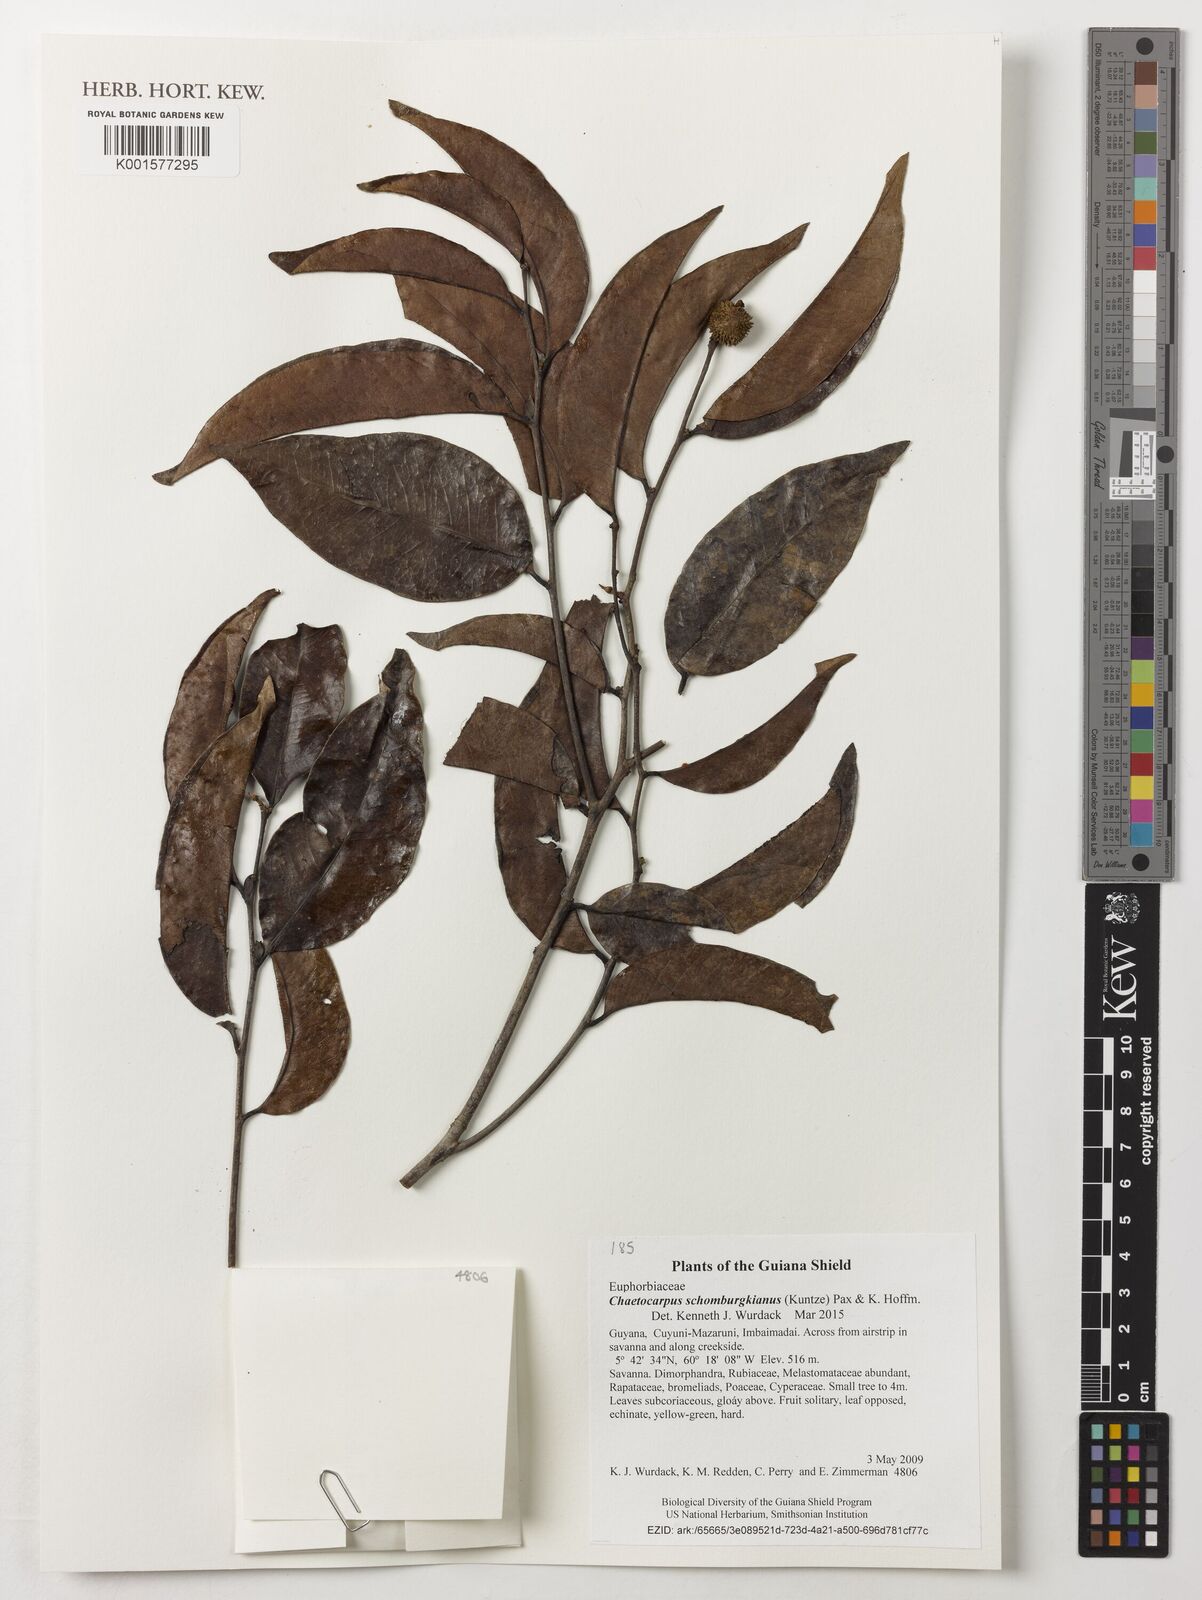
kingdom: Plantae
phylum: Tracheophyta
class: Magnoliopsida
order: Malpighiales
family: Peraceae
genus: Chaetocarpus
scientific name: Chaetocarpus schomburgkianus
